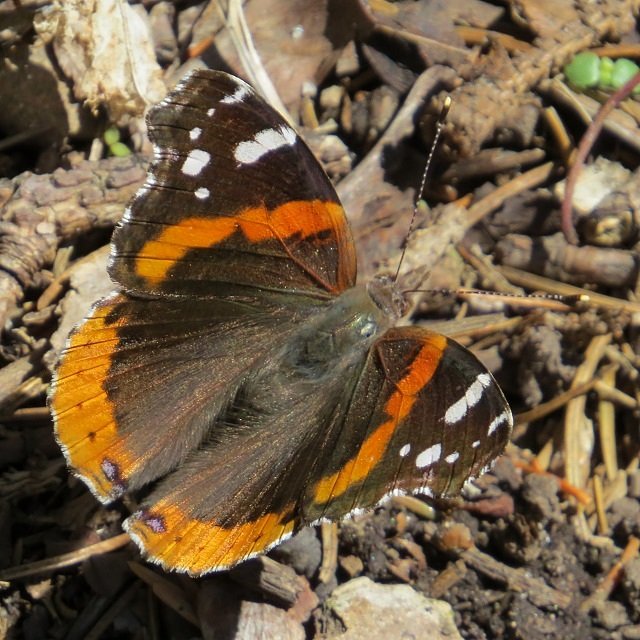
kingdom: Animalia
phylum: Arthropoda
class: Insecta
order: Lepidoptera
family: Nymphalidae
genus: Vanessa
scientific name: Vanessa atalanta
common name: Red Admiral
